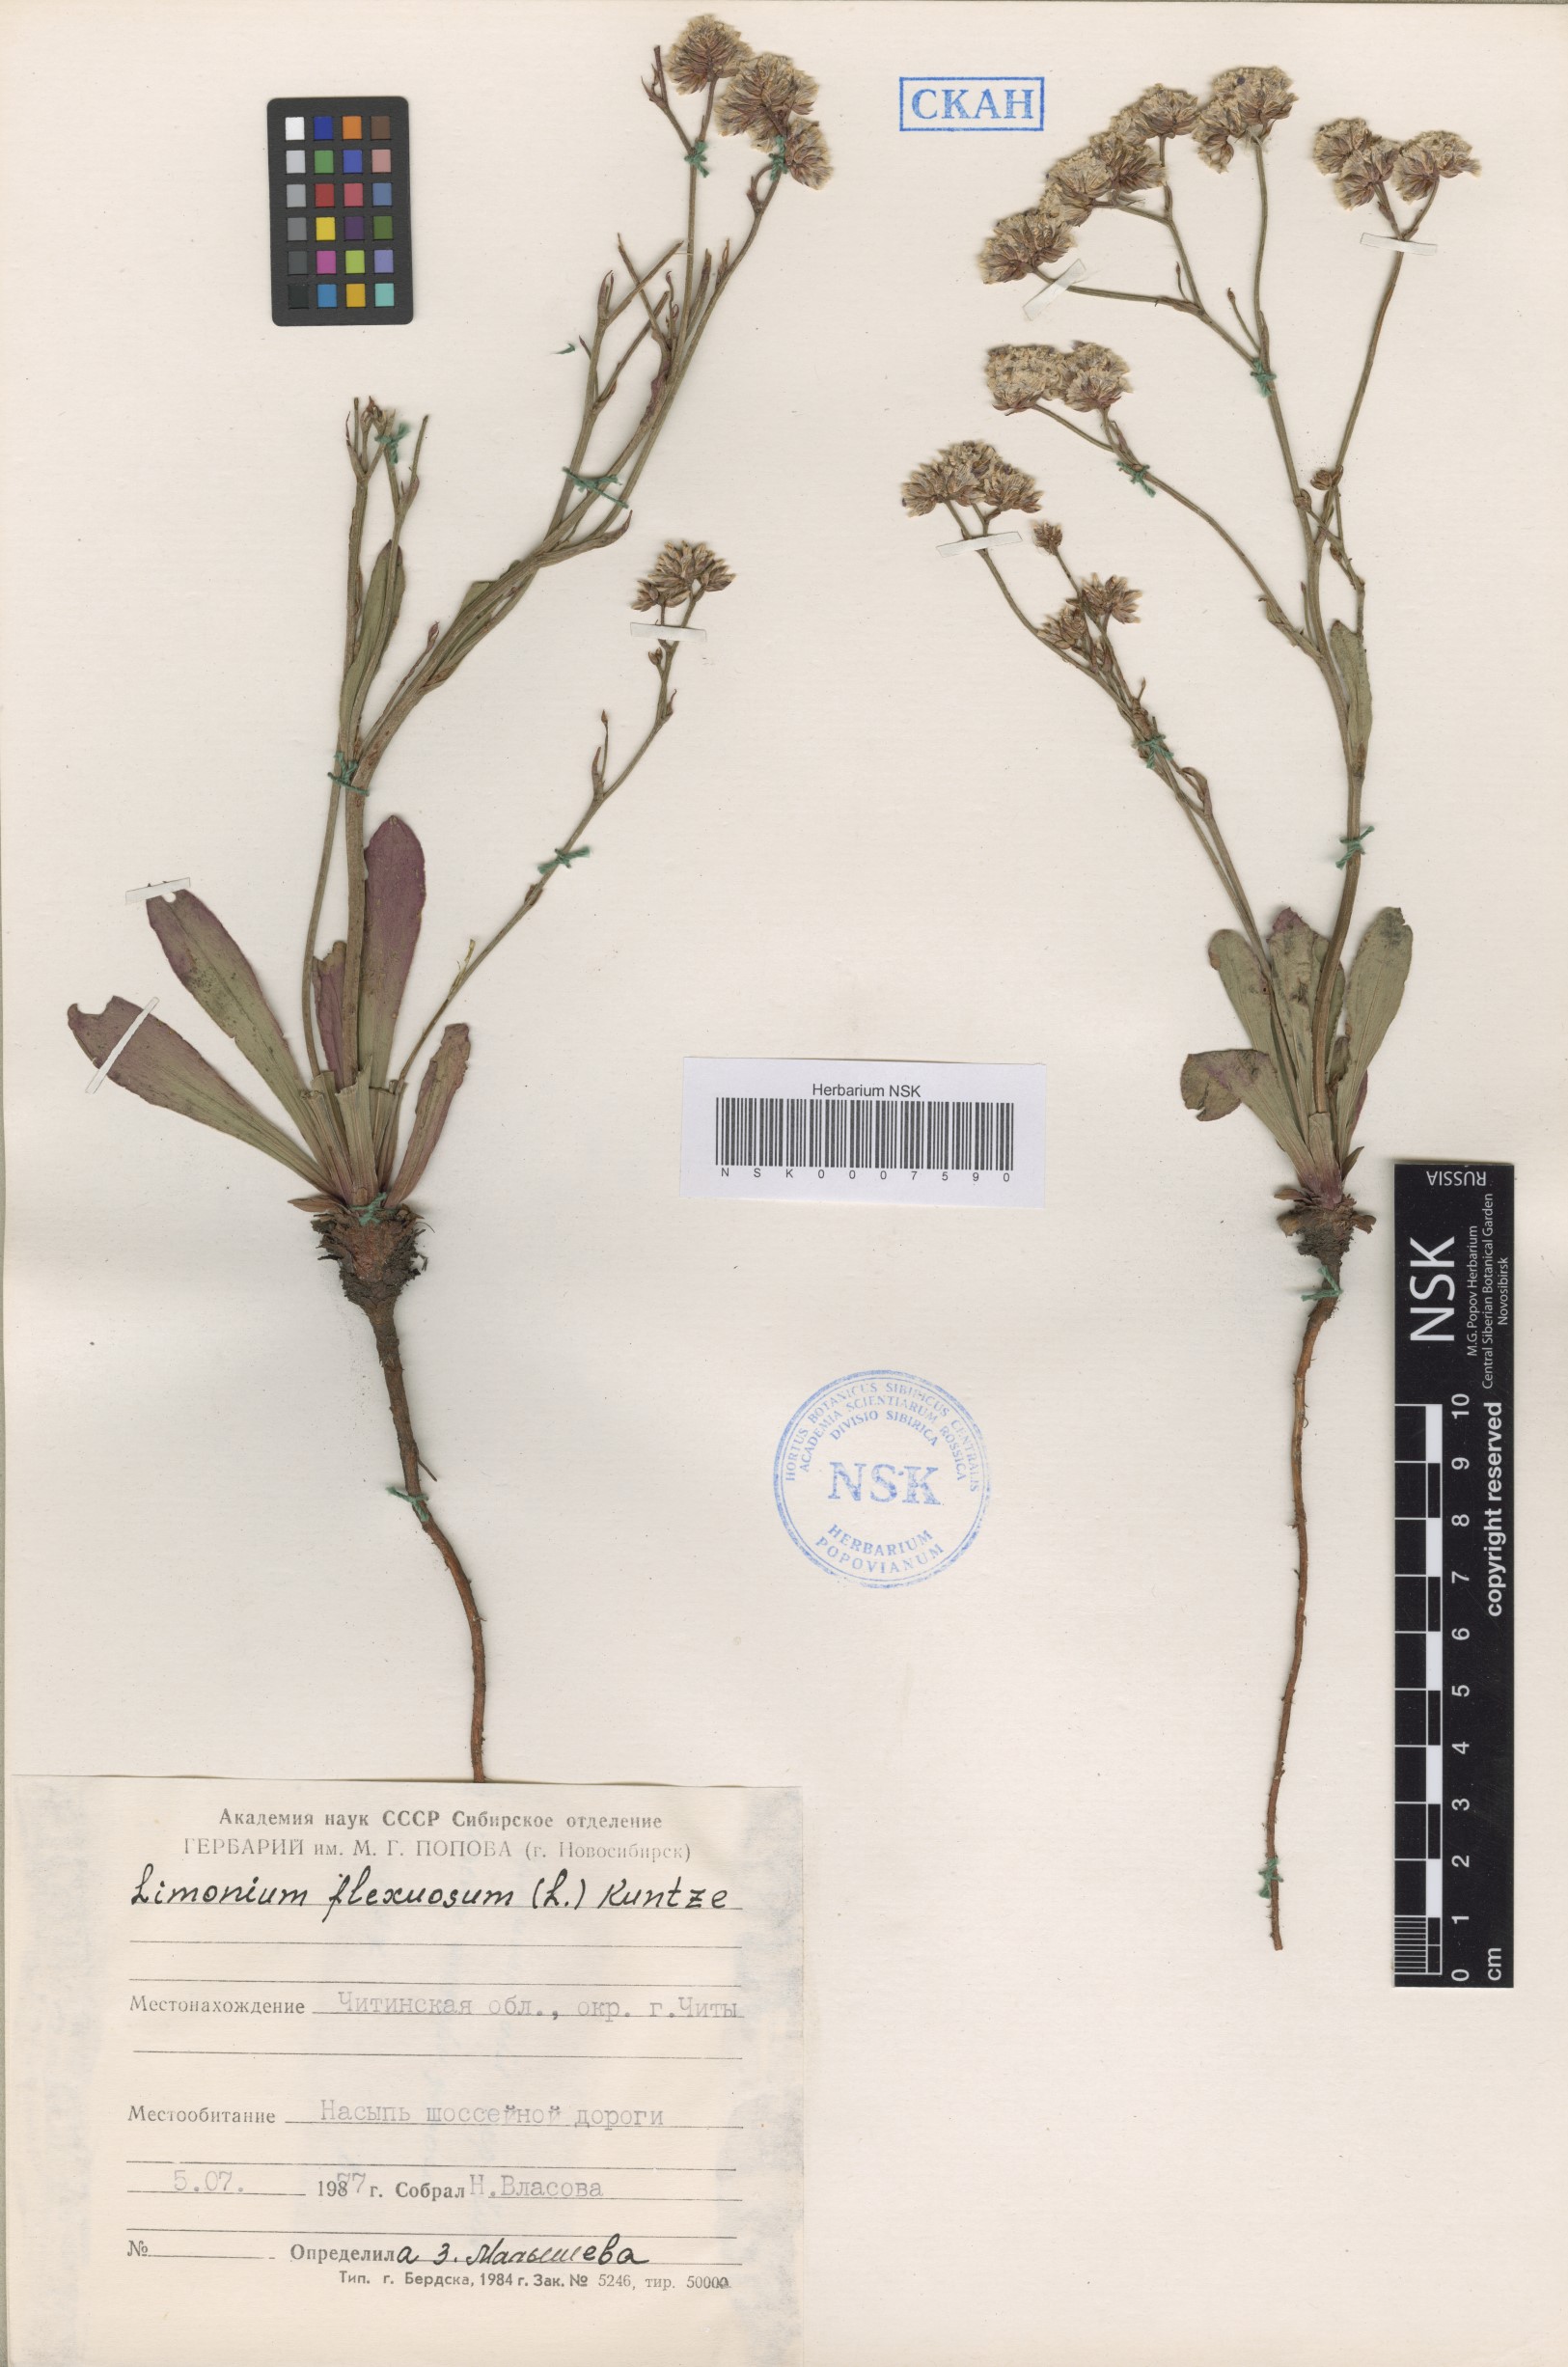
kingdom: Plantae
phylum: Tracheophyta
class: Magnoliopsida
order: Caryophyllales
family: Plumbaginaceae
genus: Limonium
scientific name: Limonium flexuosum
